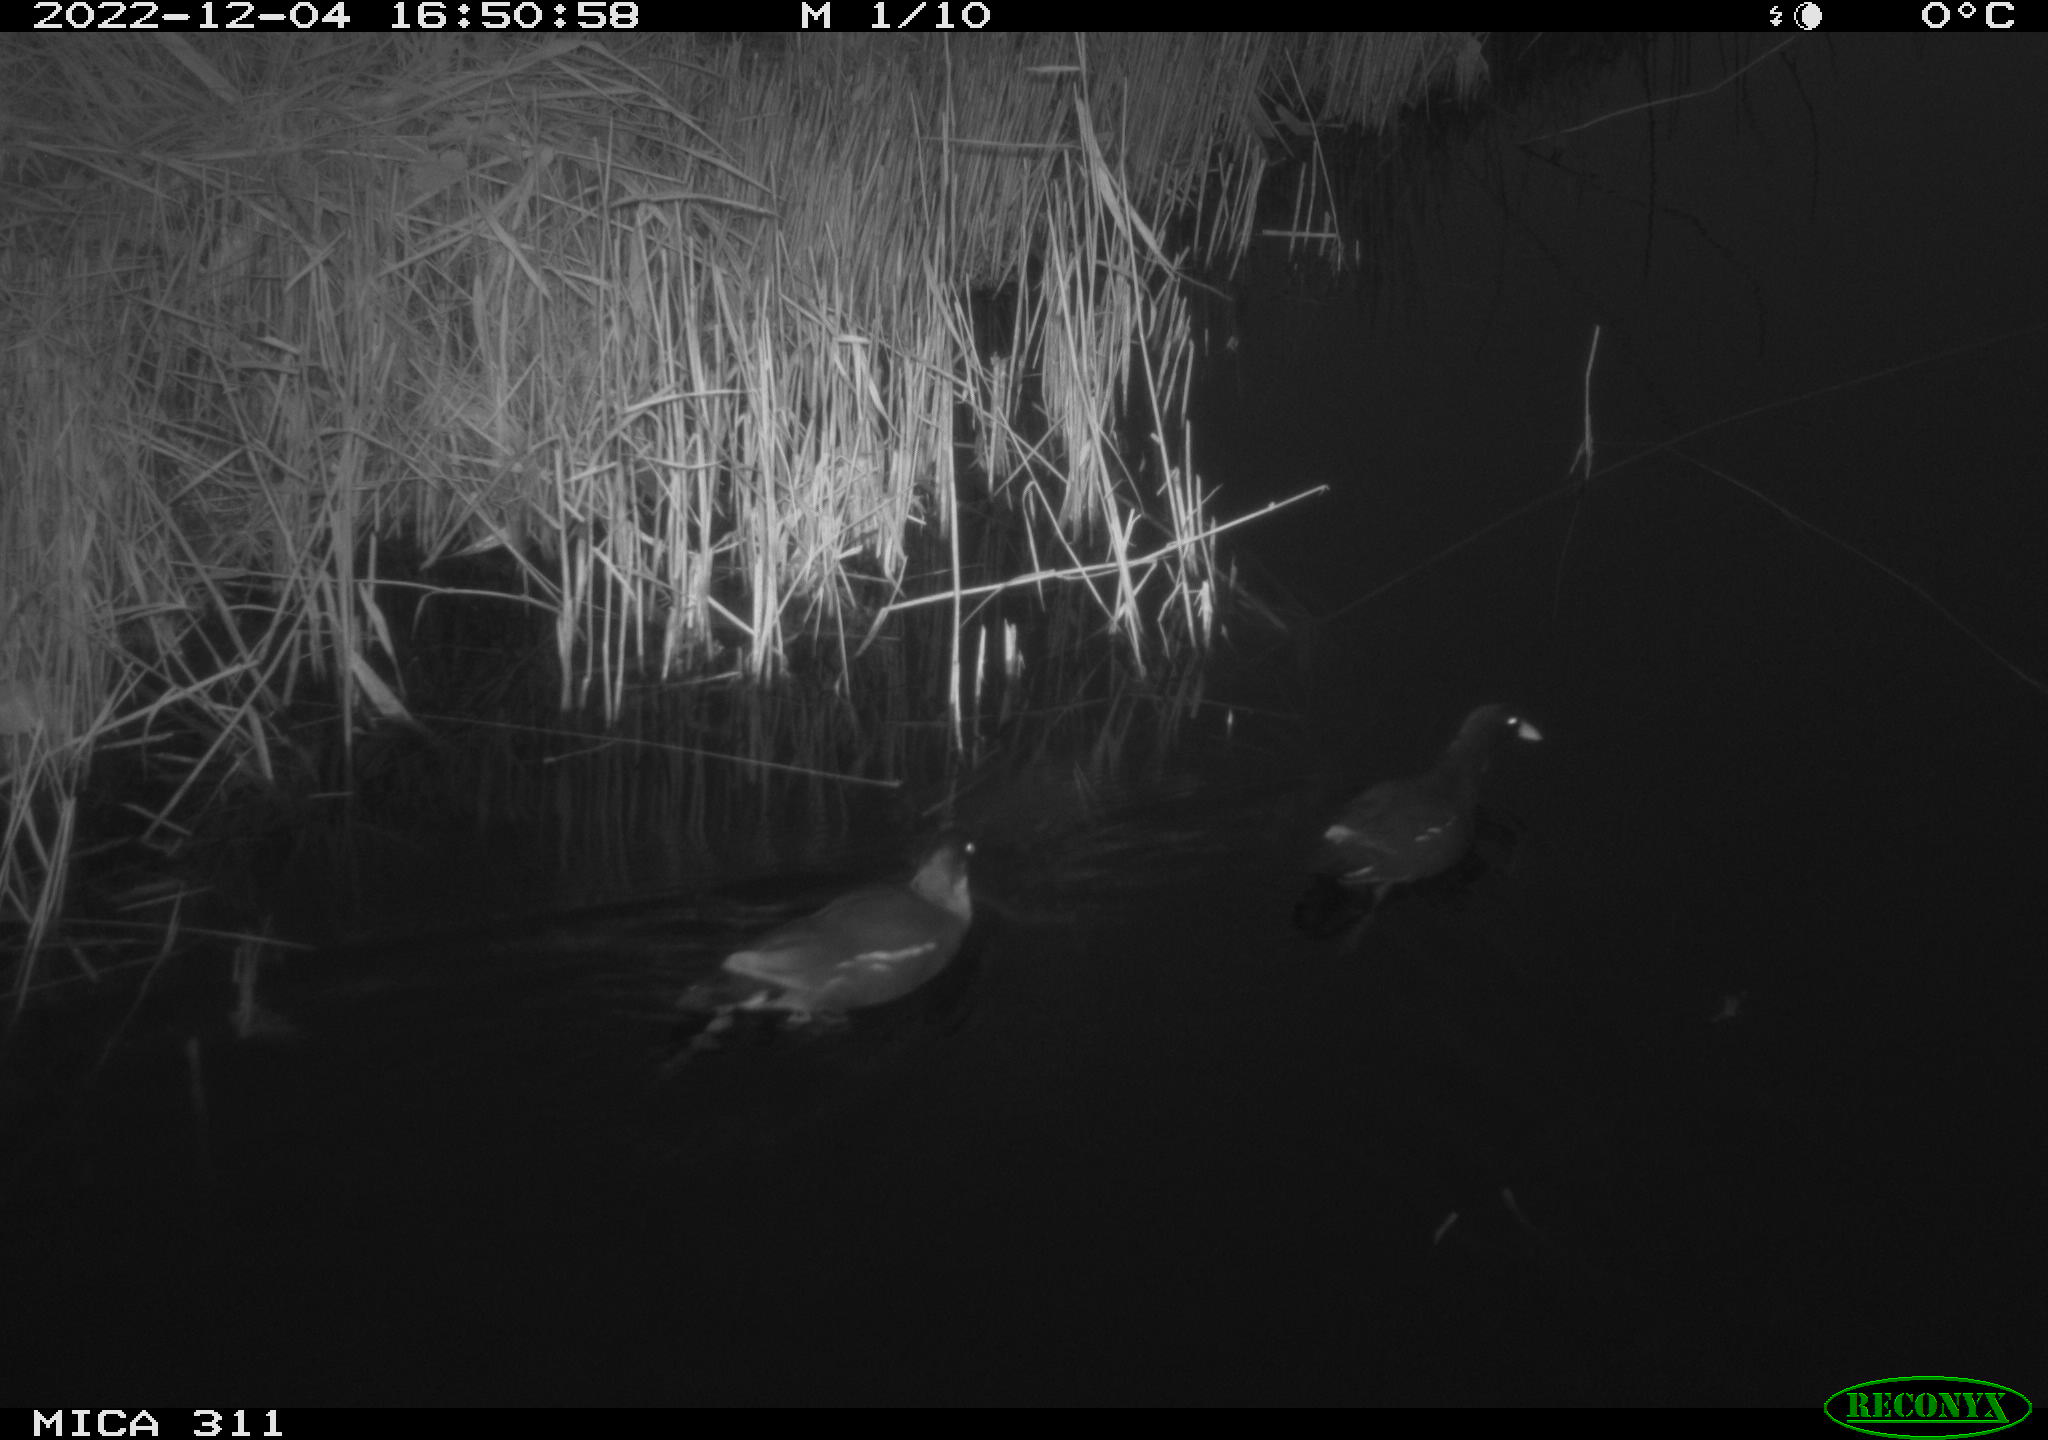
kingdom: Animalia
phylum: Chordata
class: Aves
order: Gruiformes
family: Rallidae
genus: Gallinula
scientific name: Gallinula chloropus
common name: Common moorhen
